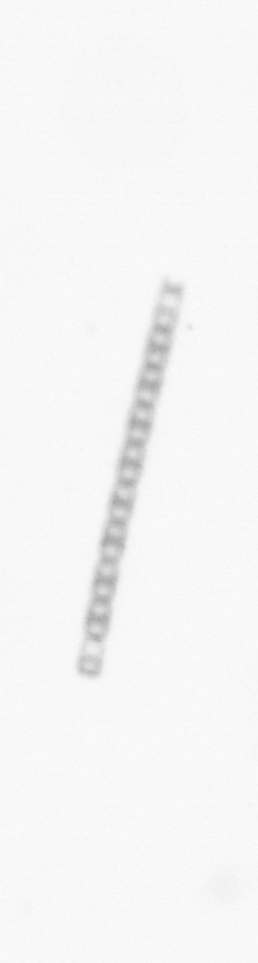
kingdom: Chromista
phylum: Ochrophyta
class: Bacillariophyceae
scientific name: Bacillariophyceae
